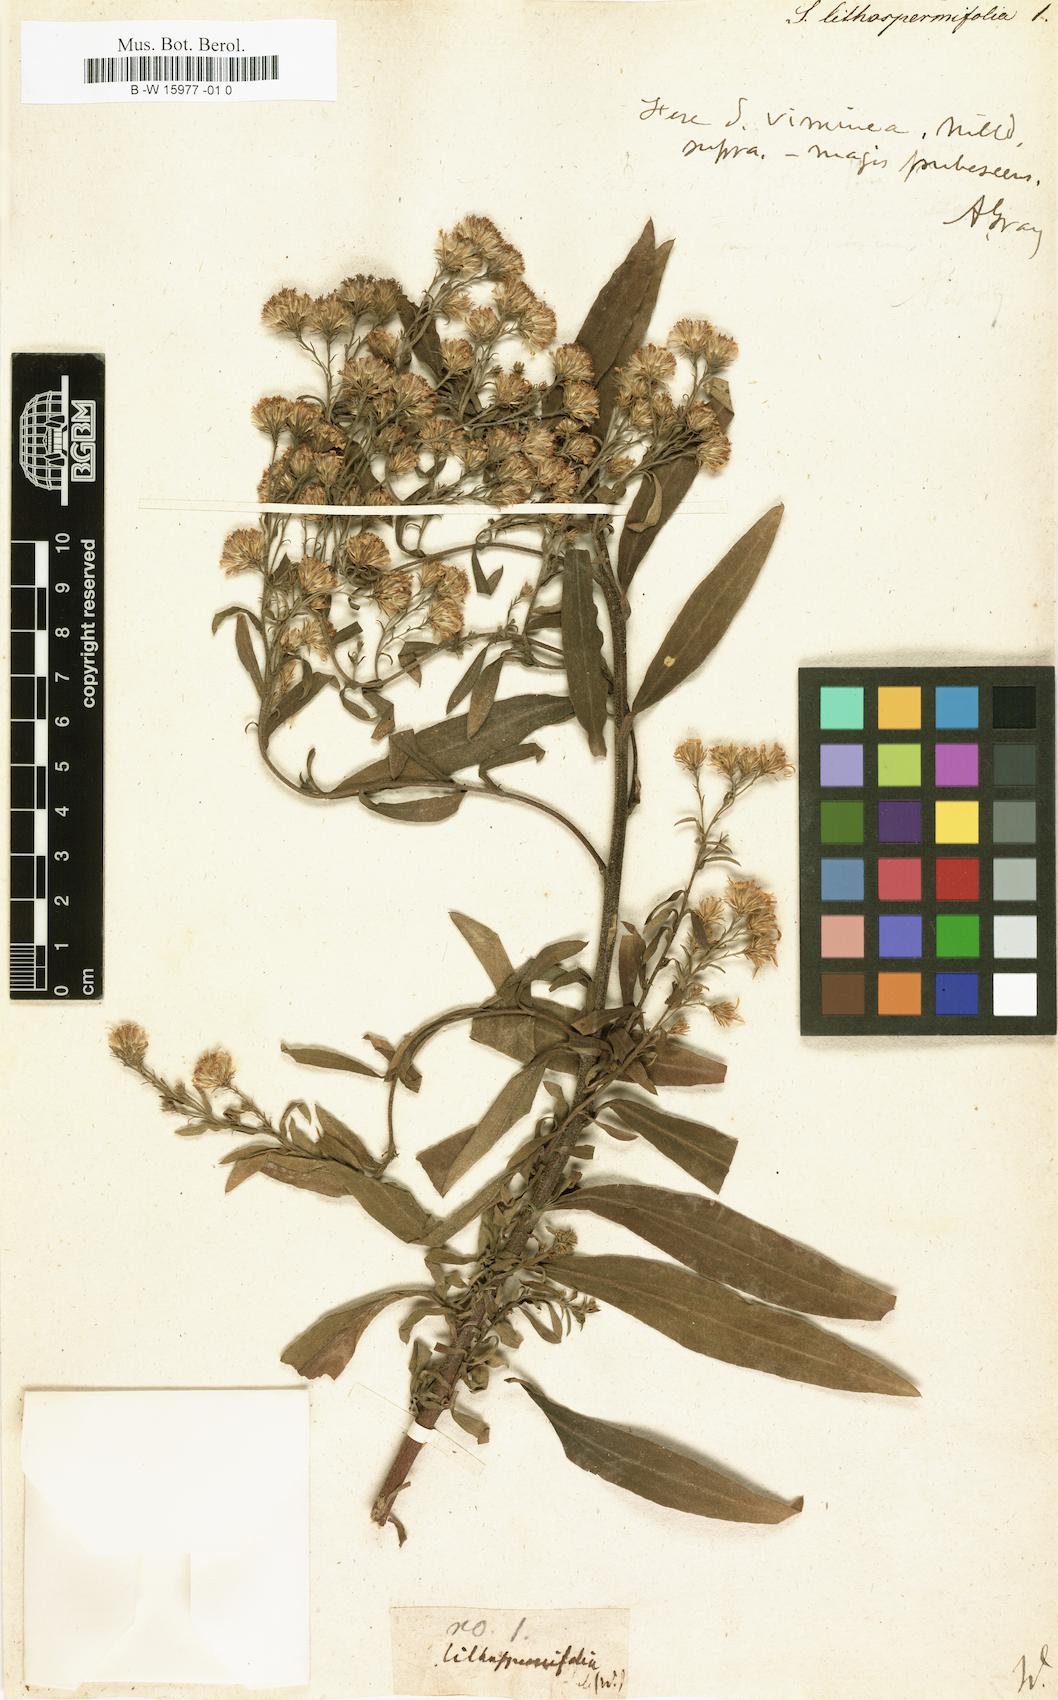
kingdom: Plantae
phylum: Tracheophyta
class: Magnoliopsida
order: Asterales
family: Asteraceae
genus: Solidago
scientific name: Solidago sempervirens
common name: Salt-marsh goldenrod
